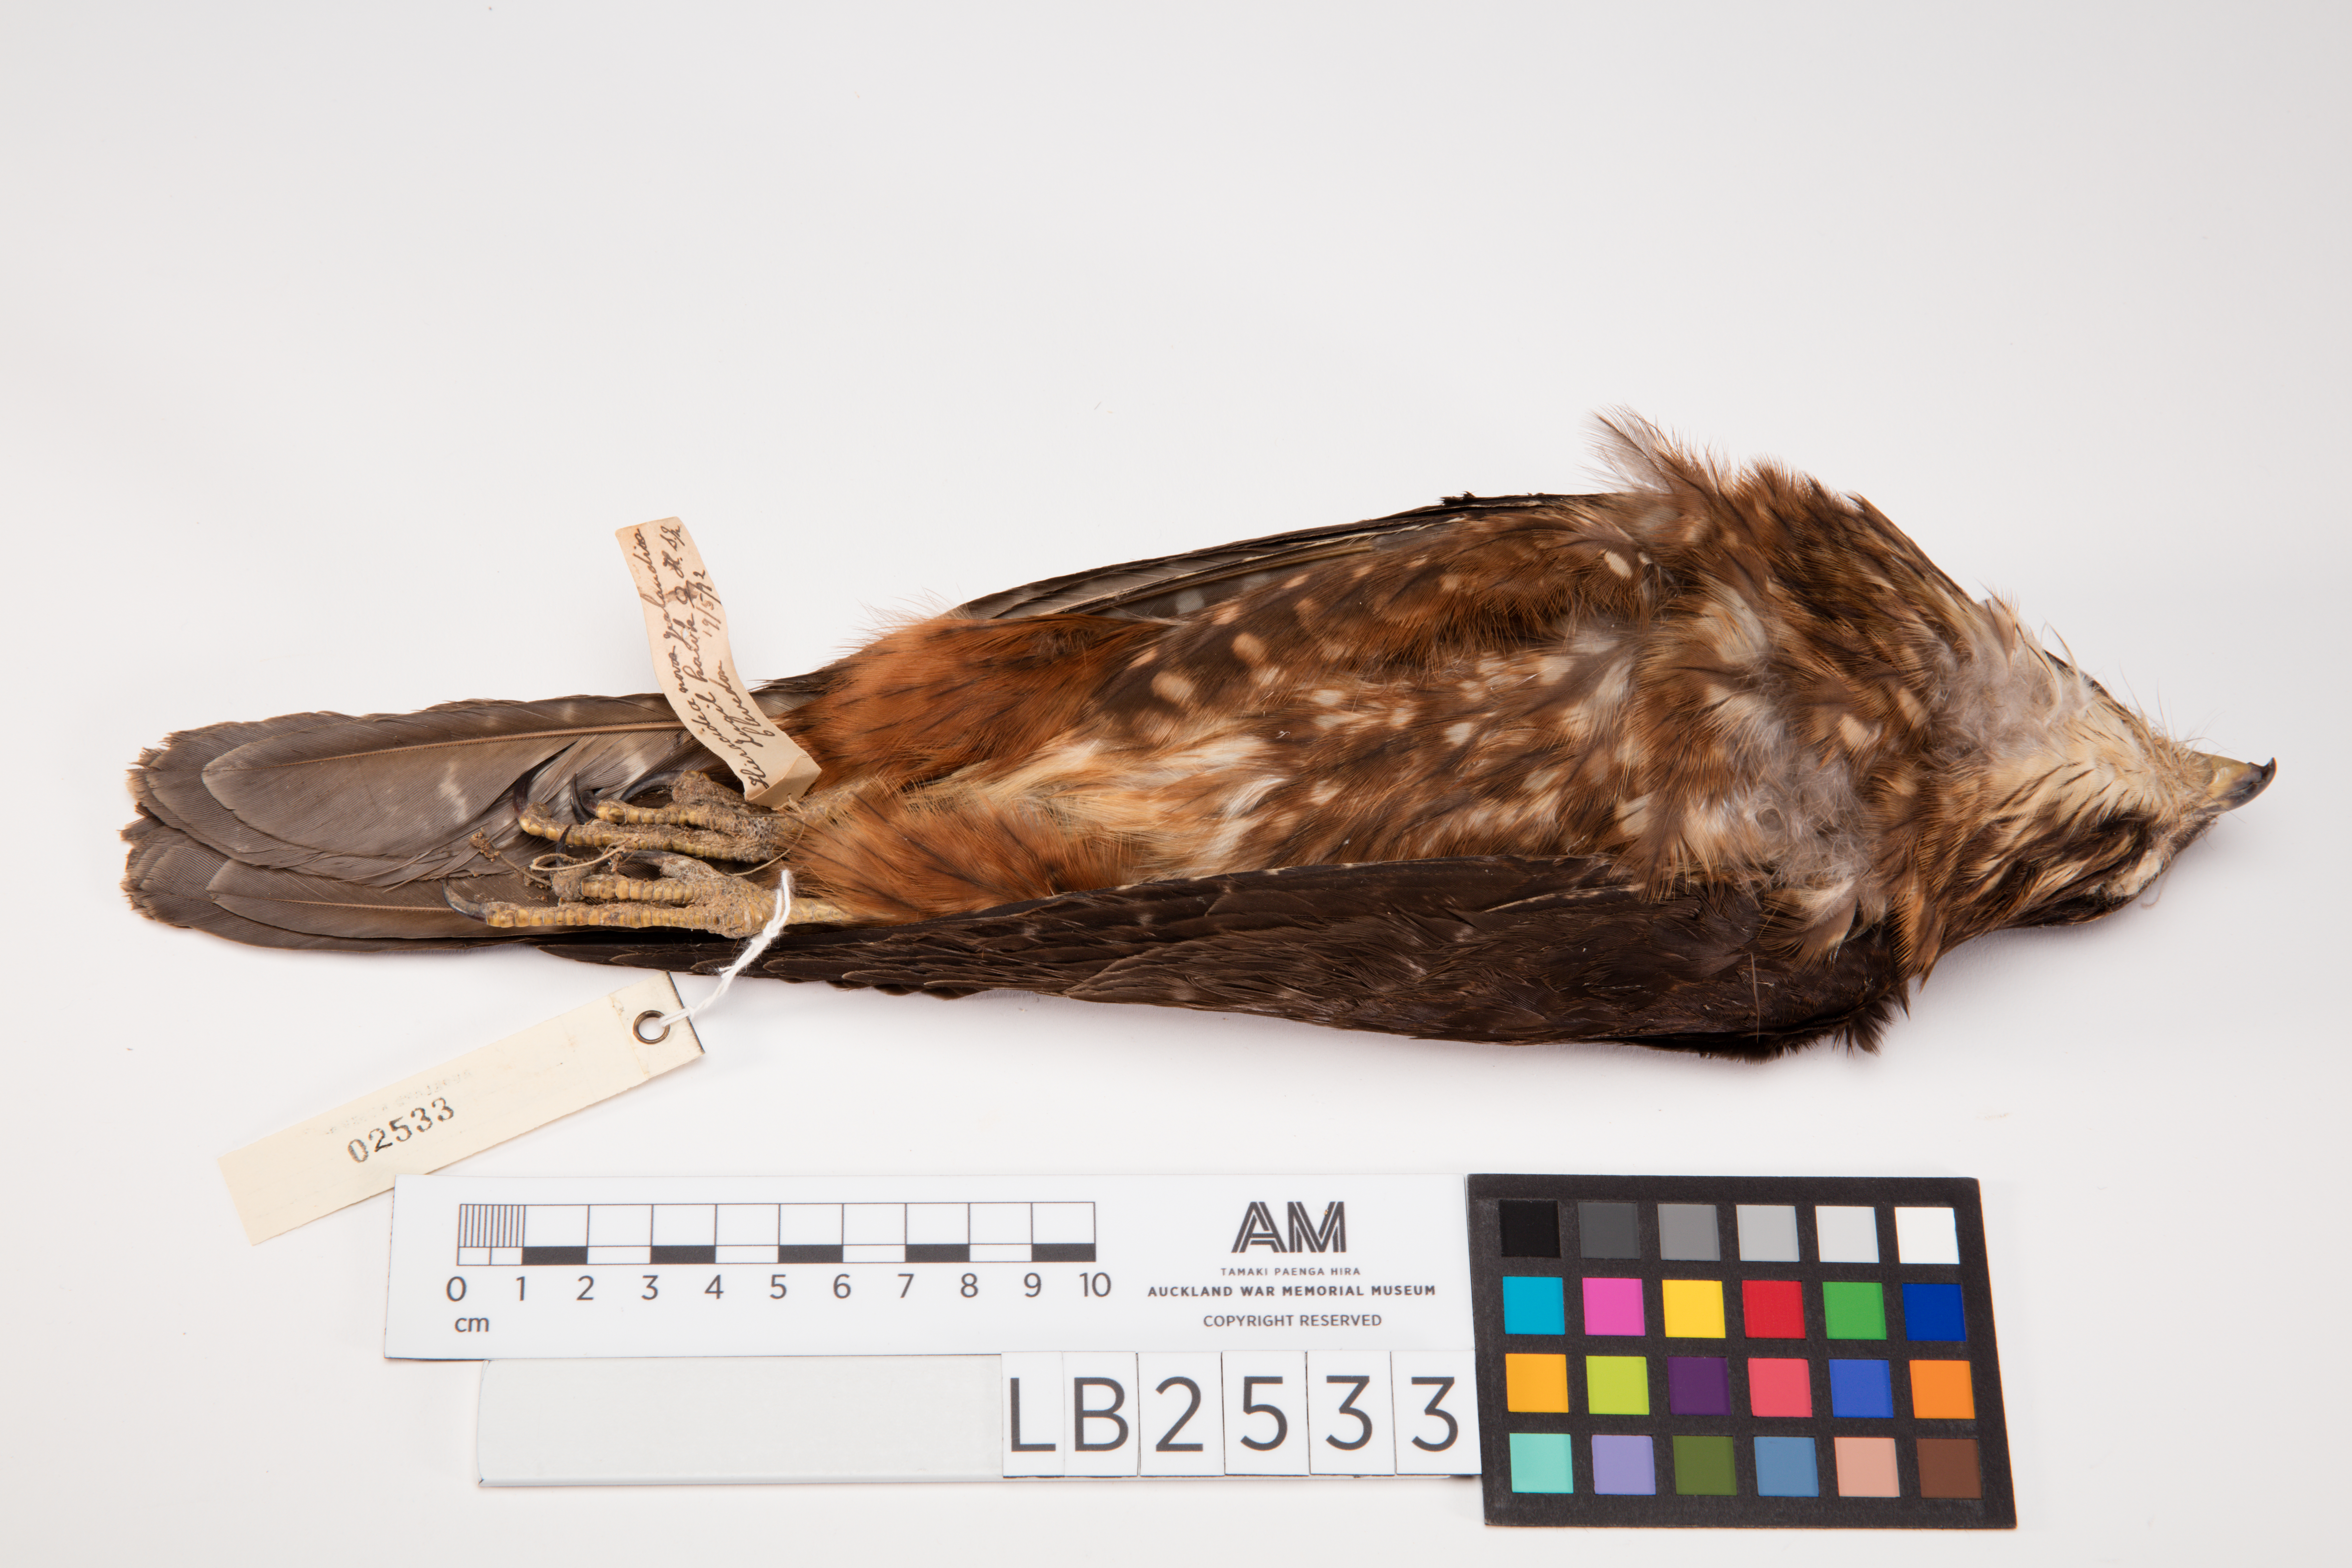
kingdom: Animalia
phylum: Chordata
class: Aves
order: Falconiformes
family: Falconidae
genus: Falco
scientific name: Falco novaeseelandiae
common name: New zealand falcon
